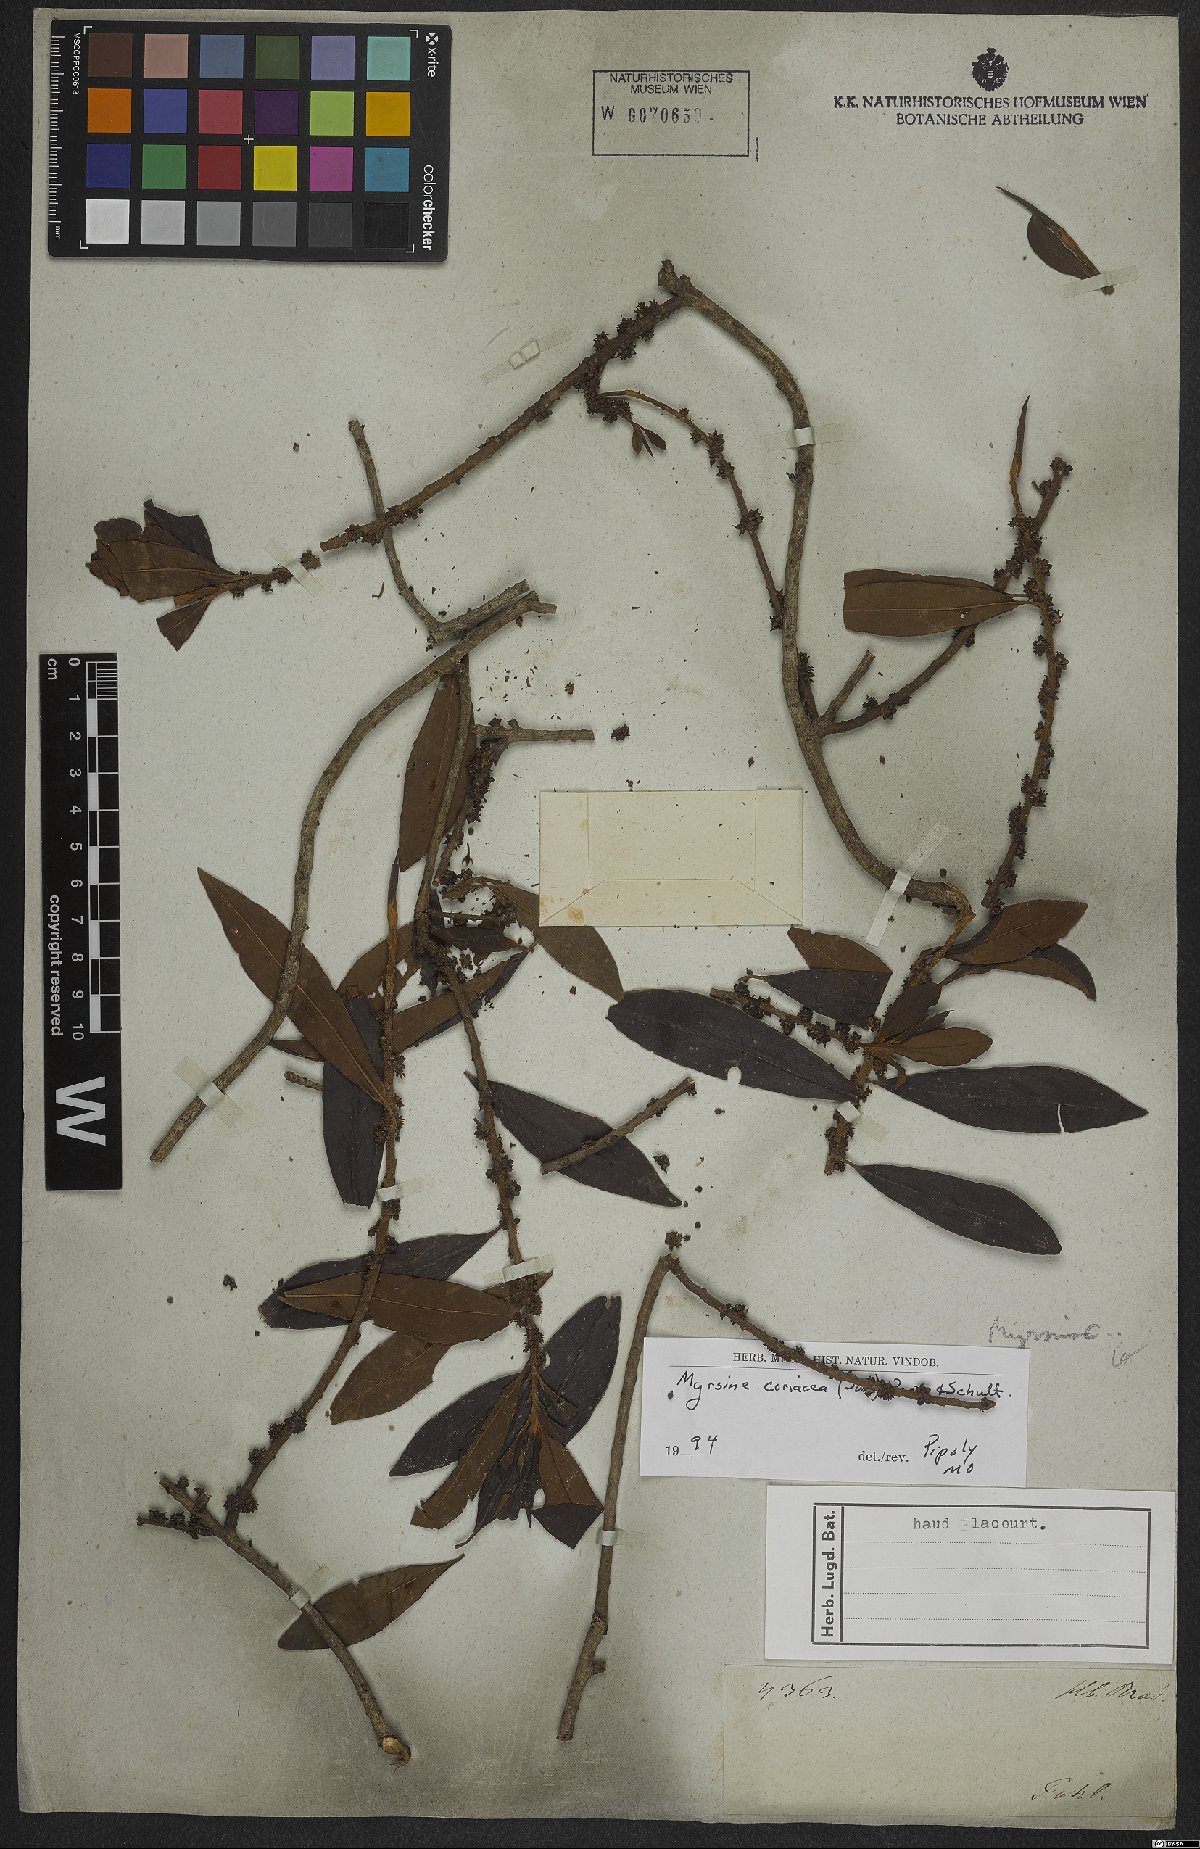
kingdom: Plantae
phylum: Tracheophyta
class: Magnoliopsida
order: Ericales
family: Primulaceae
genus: Myrsine
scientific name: Myrsine coriacea
